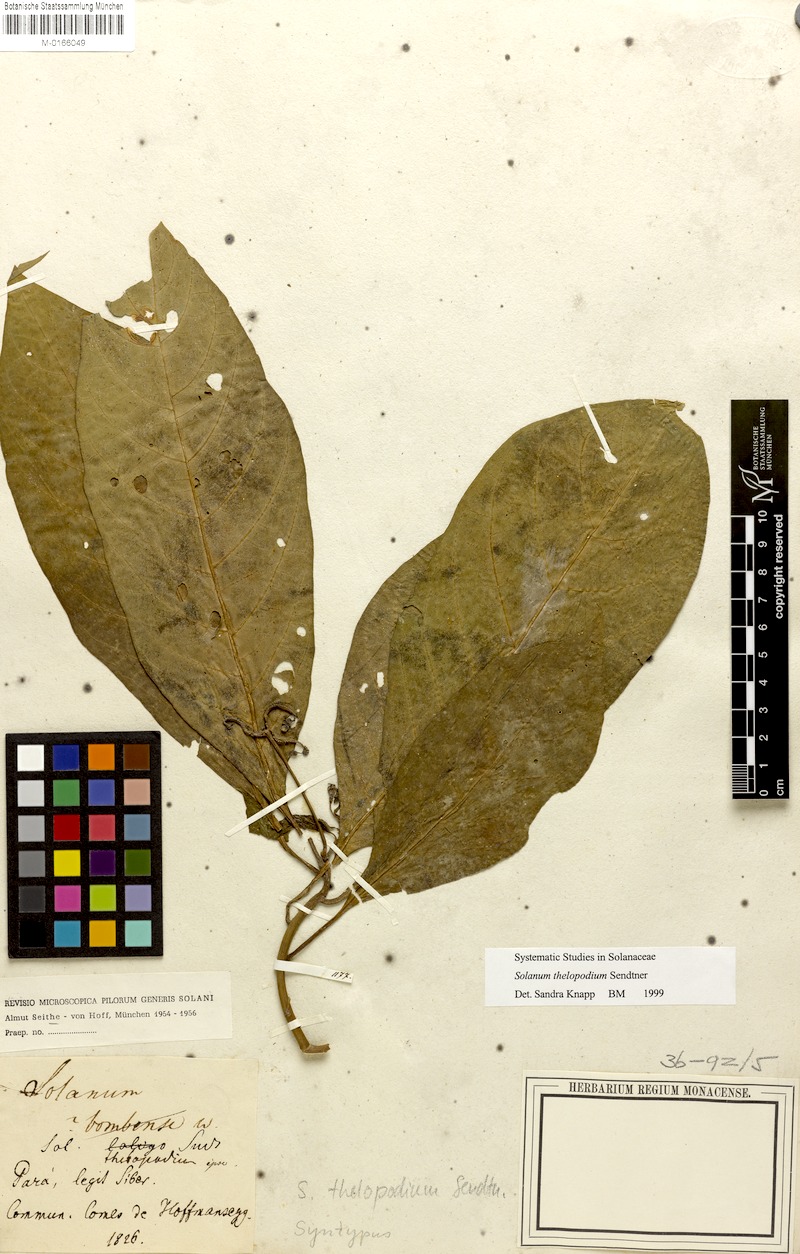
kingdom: Plantae
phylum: Tracheophyta
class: Magnoliopsida
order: Solanales
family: Solanaceae
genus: Solanum
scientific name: Solanum thelopodium
